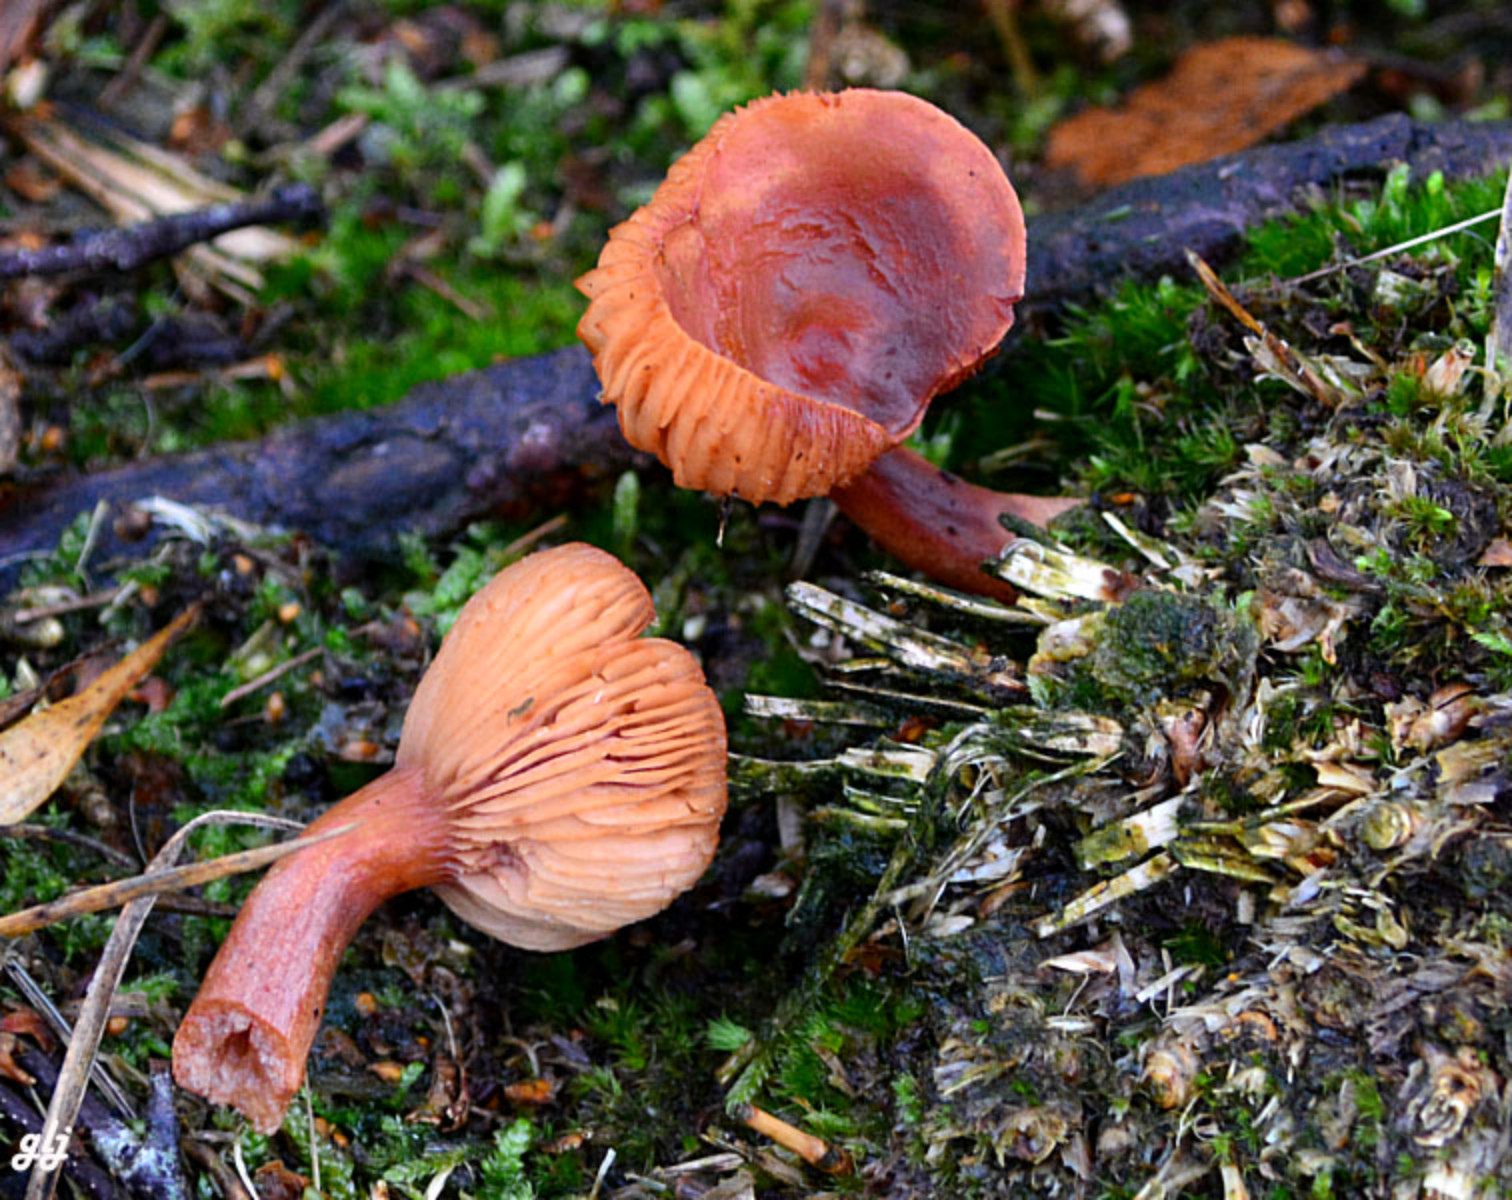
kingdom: Fungi
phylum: Basidiomycota
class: Agaricomycetes
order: Russulales
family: Russulaceae
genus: Lactarius
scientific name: Lactarius
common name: mælkehat
